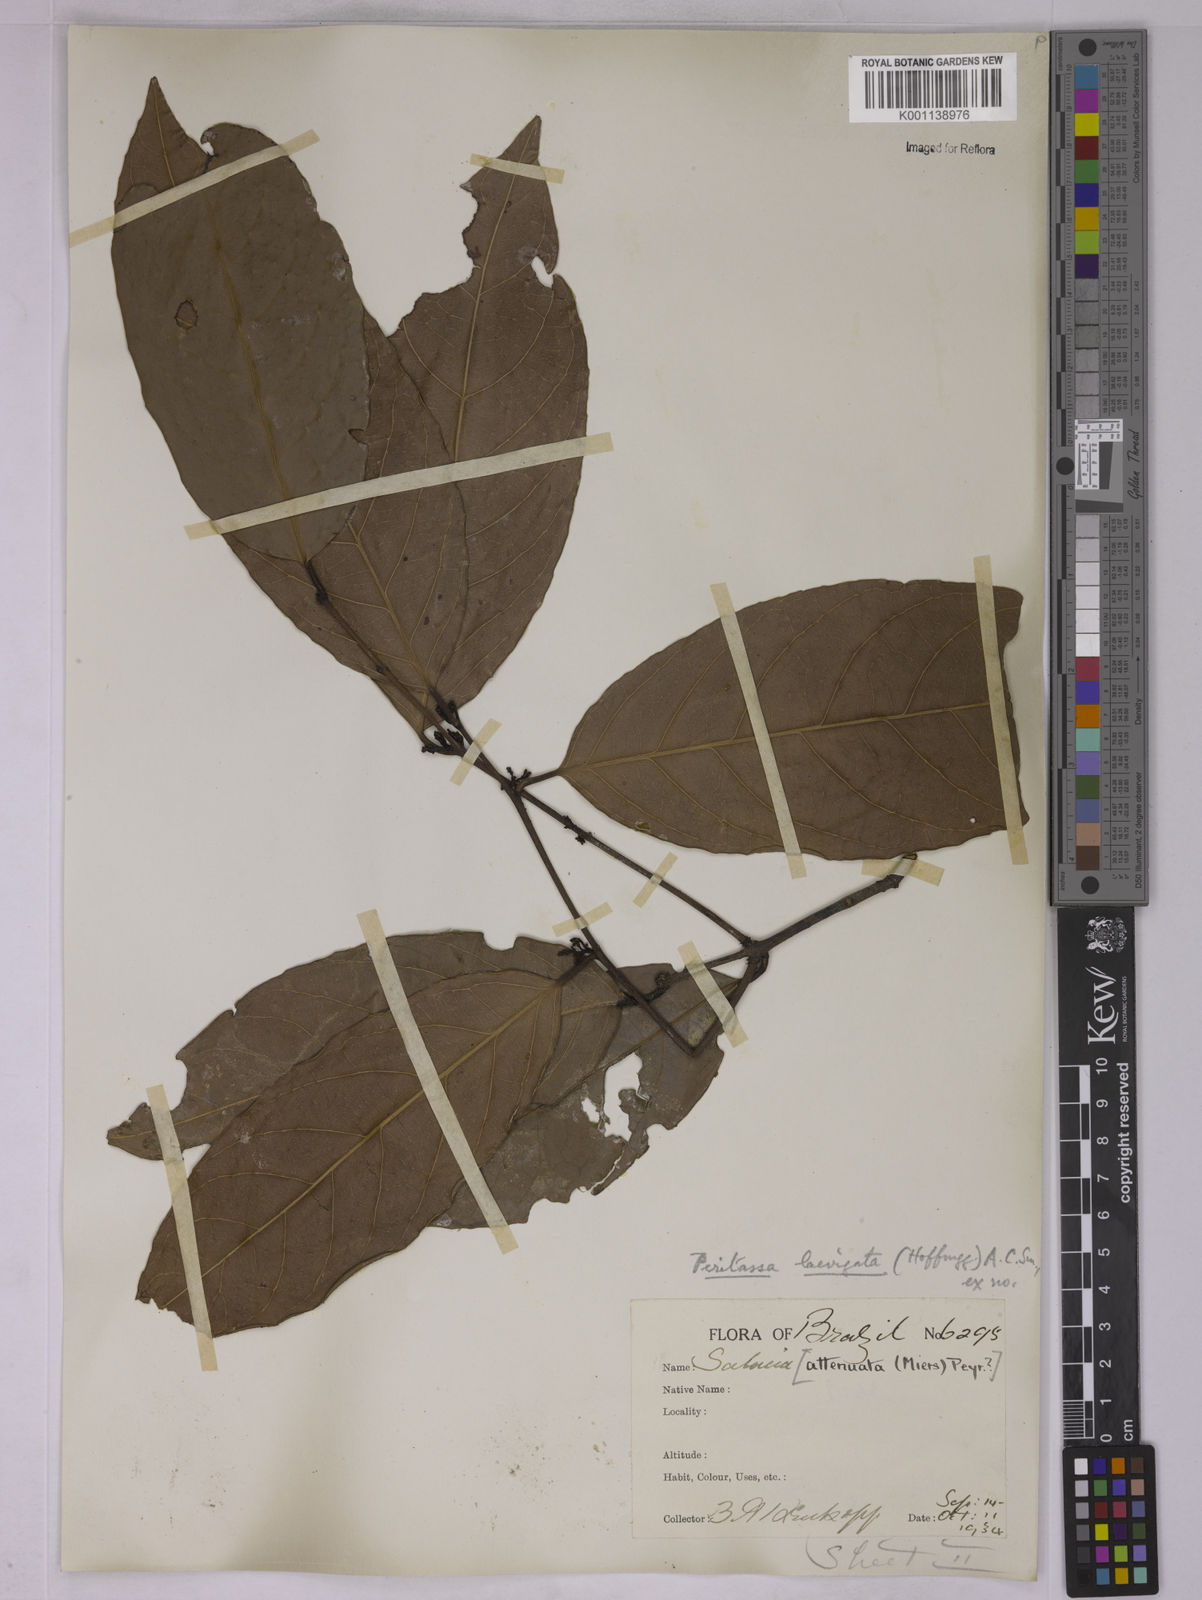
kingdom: Plantae
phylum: Tracheophyta
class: Magnoliopsida
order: Celastrales
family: Celastraceae
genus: Peritassa
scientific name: Peritassa laevigata
